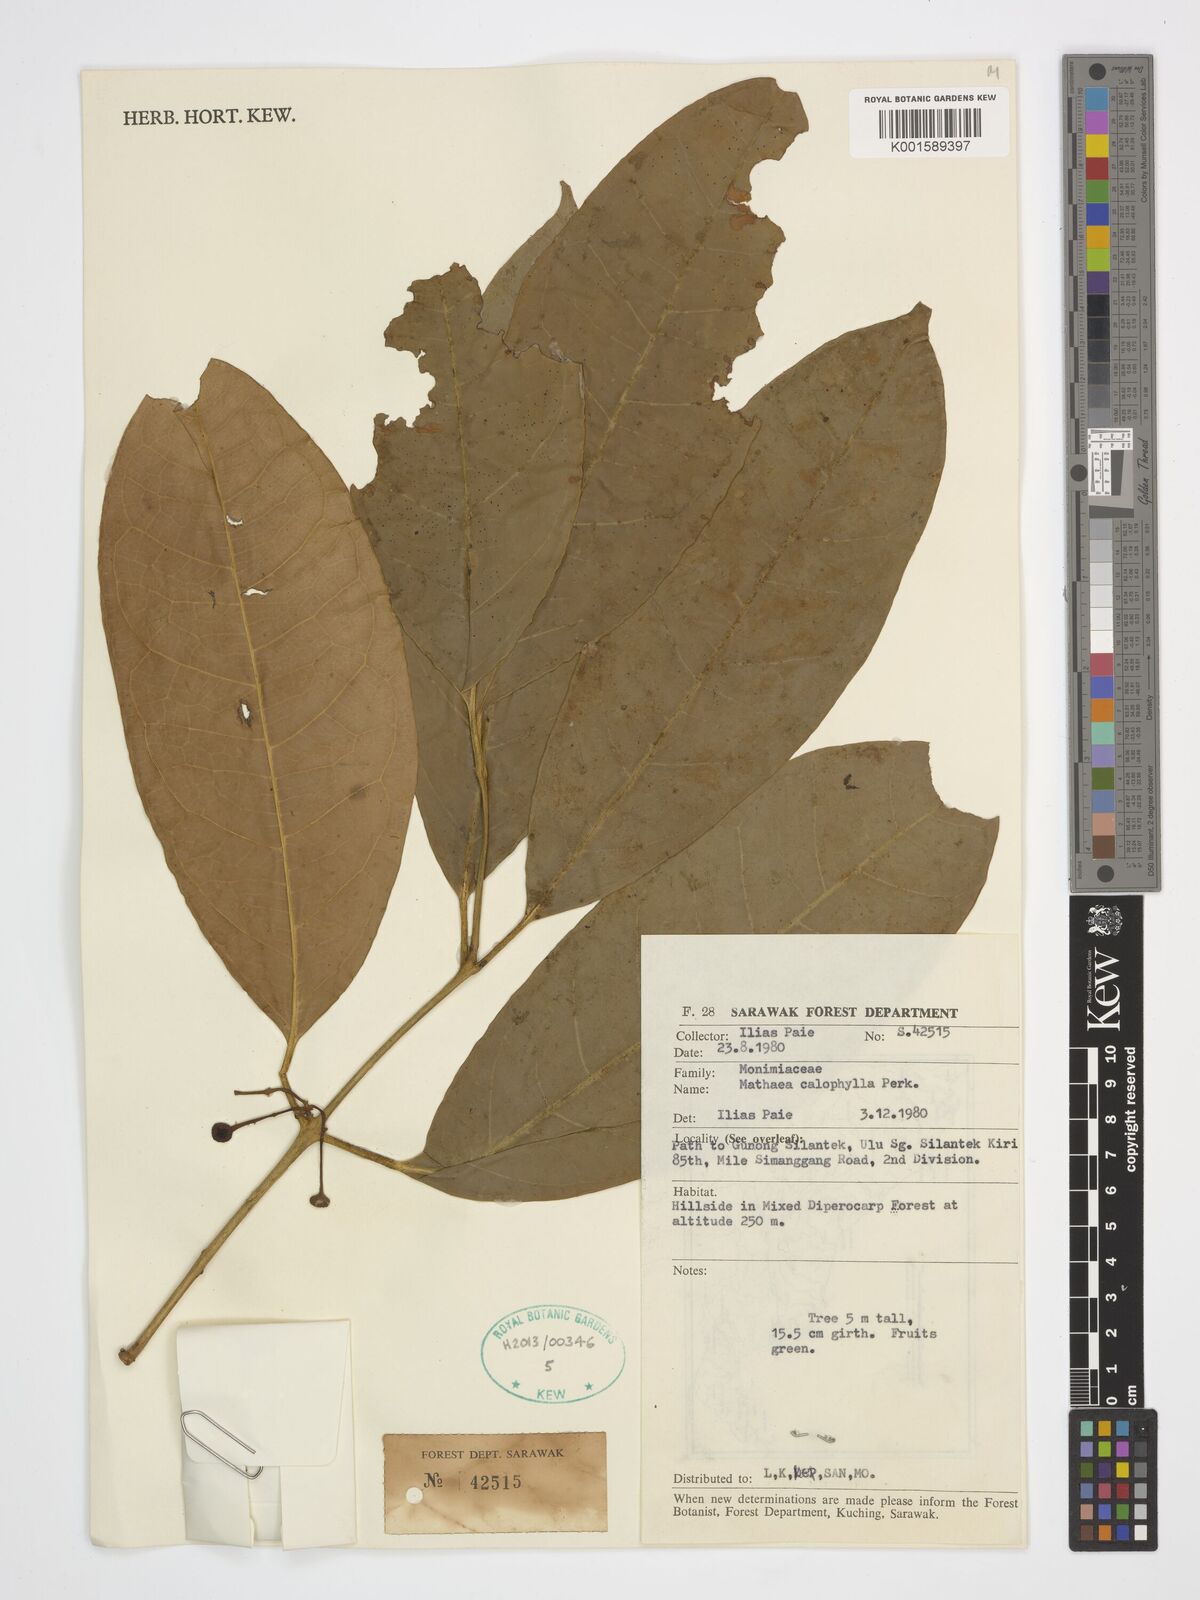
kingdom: Plantae
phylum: Tracheophyta
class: Magnoliopsida
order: Laurales
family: Monimiaceae
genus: Matthaea
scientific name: Matthaea sancta
